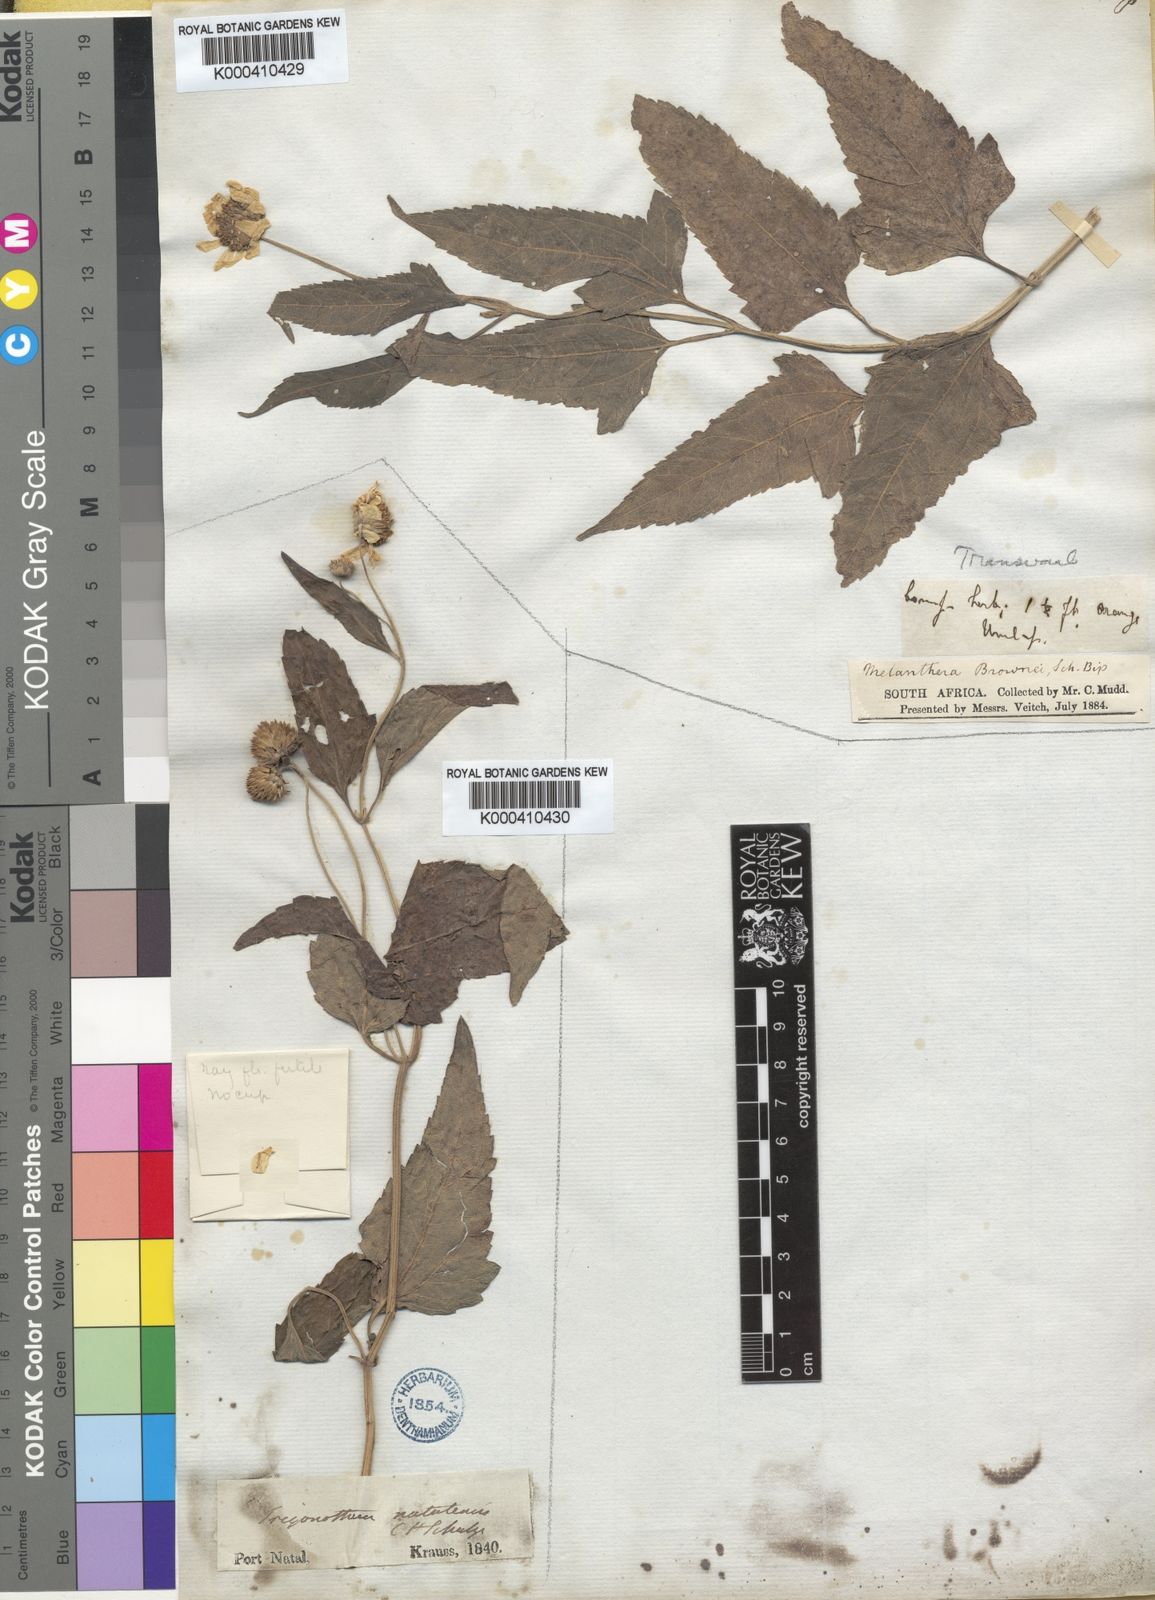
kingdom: Plantae
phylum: Tracheophyta
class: Magnoliopsida
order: Asterales
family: Asteraceae
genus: Melanthera
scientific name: Melanthera
